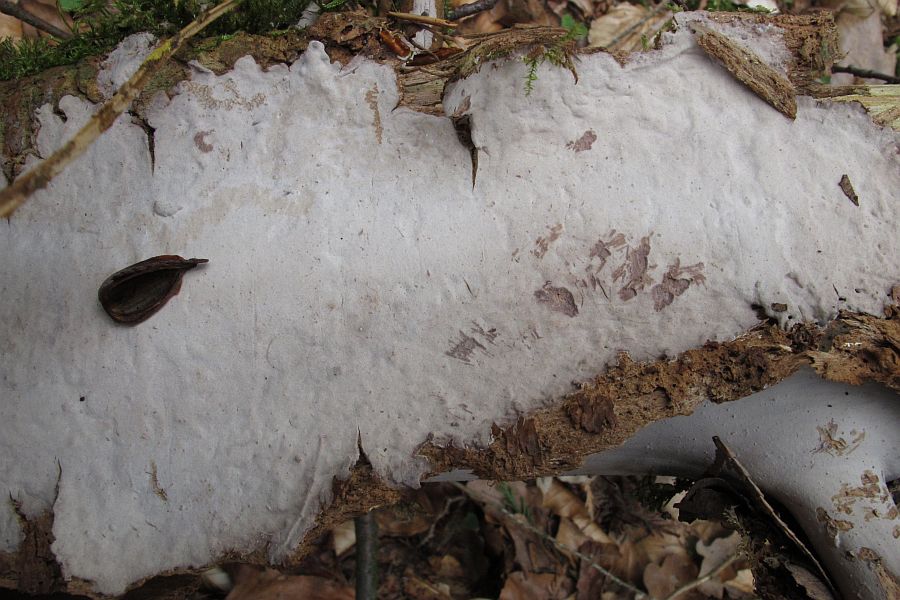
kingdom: Fungi
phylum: Basidiomycota
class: Agaricomycetes
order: Russulales
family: Echinodontiaceae
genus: Amylostereum
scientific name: Amylostereum laevigatum
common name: ene-lædersvamp
